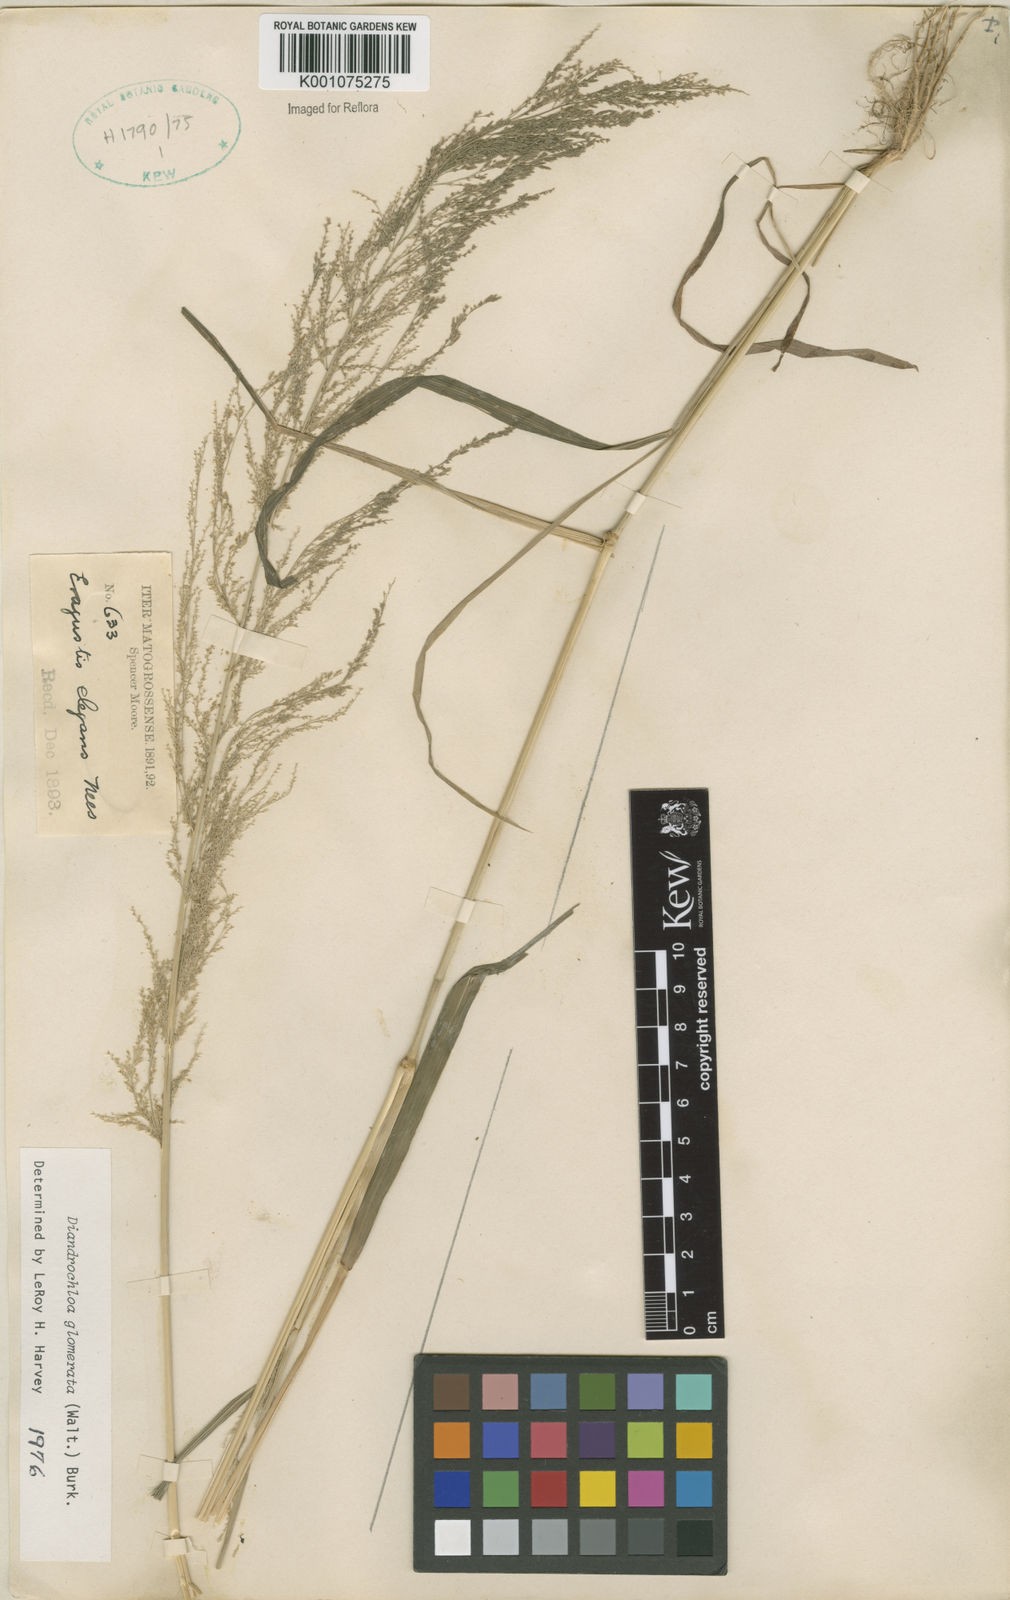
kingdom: Plantae
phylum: Tracheophyta
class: Liliopsida
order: Poales
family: Poaceae
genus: Eragrostis
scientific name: Eragrostis japonica
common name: Pond lovegrass
